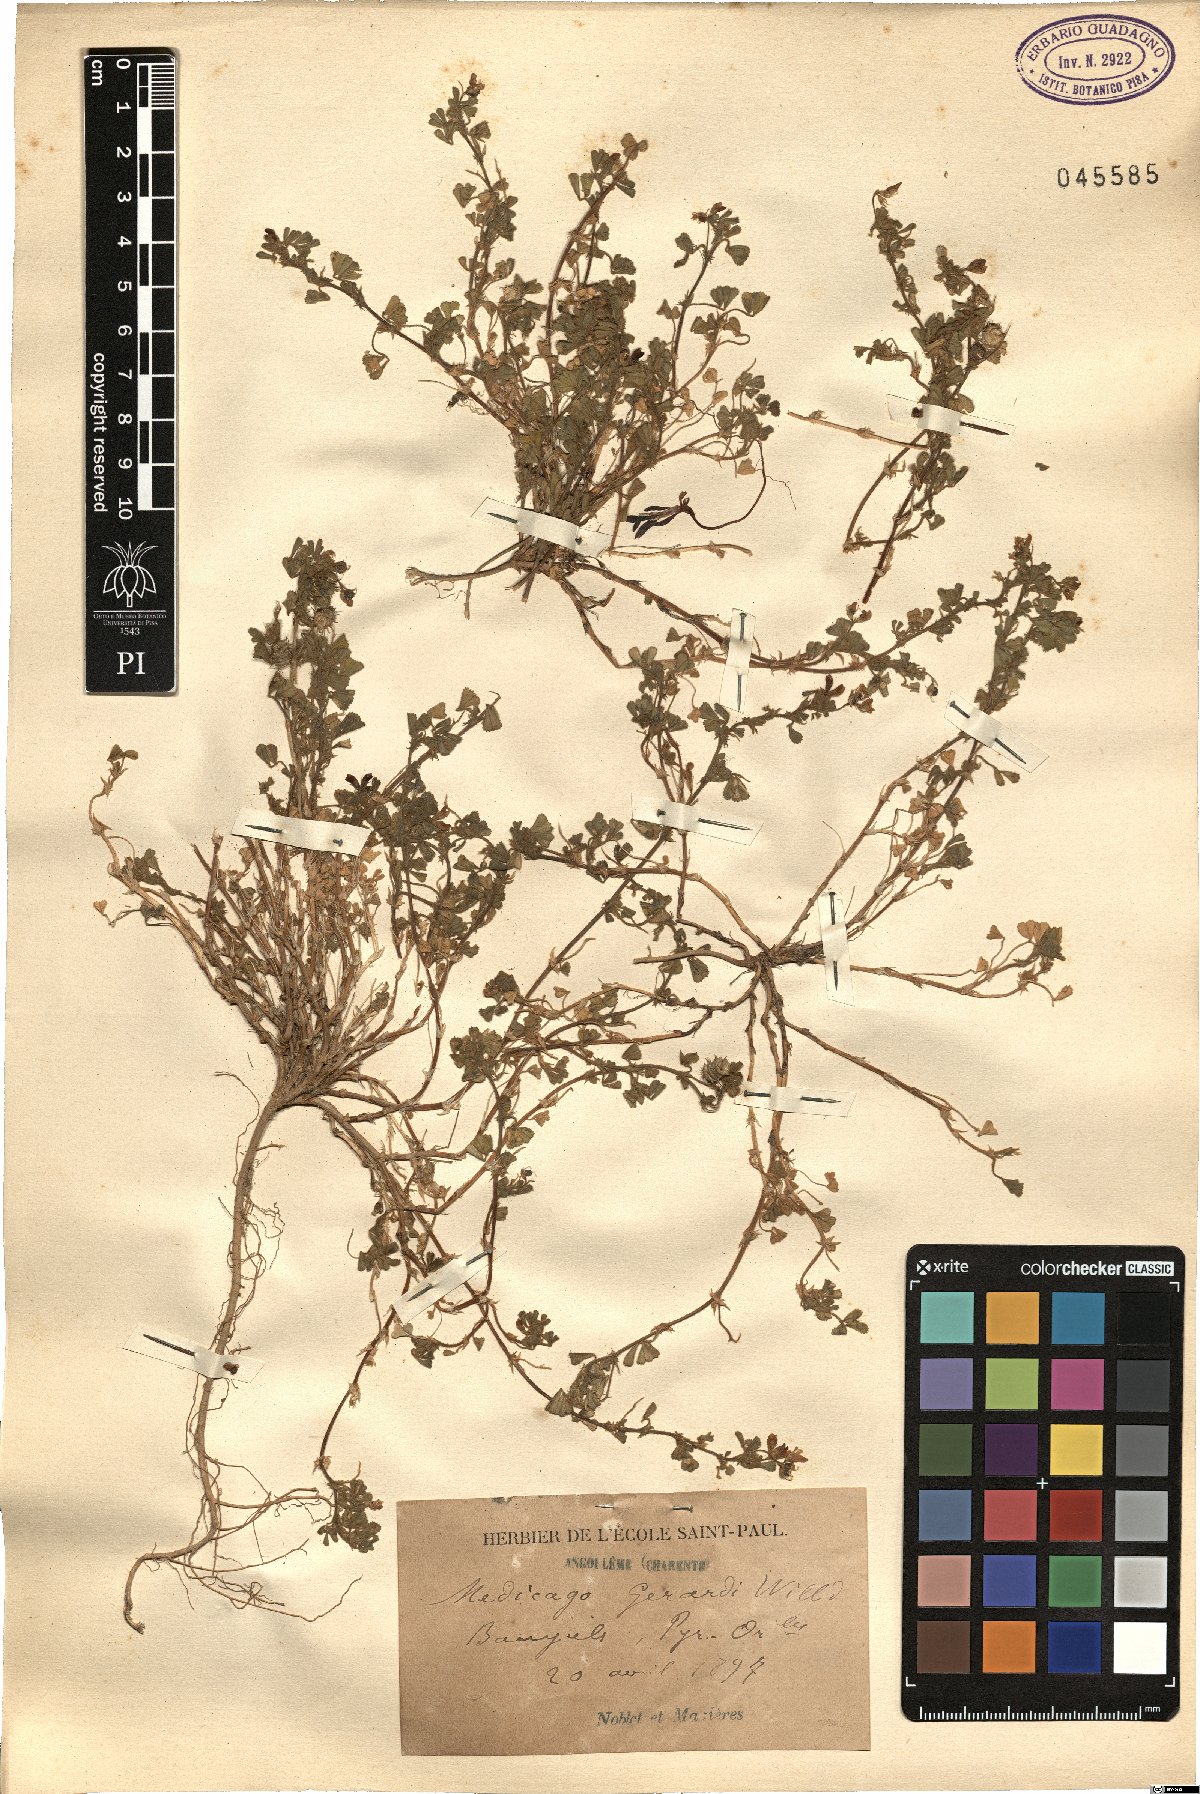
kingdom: Plantae
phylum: Tracheophyta
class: Magnoliopsida
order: Fabales
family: Fabaceae
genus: Medicago
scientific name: Medicago rigidula
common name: Tifton medic
